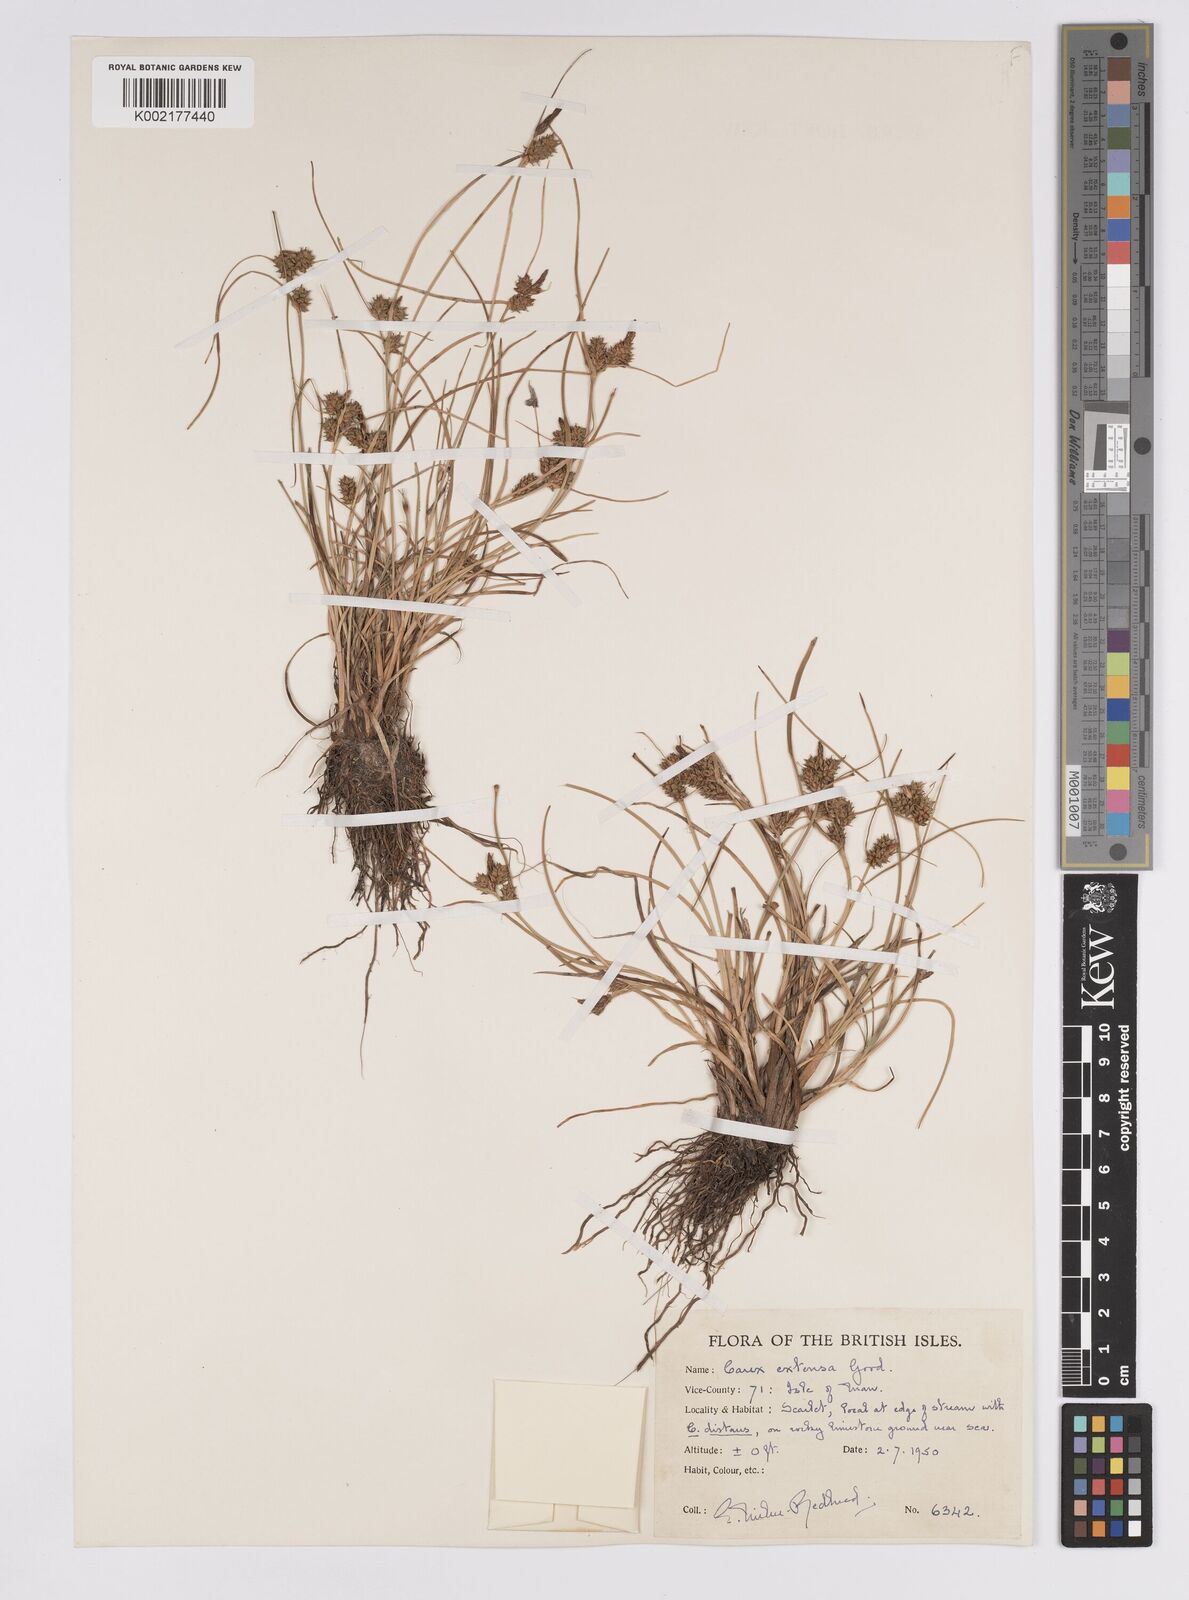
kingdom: Plantae
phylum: Tracheophyta
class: Liliopsida
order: Poales
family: Cyperaceae
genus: Carex
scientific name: Carex extensa
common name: Long-bracted sedge
